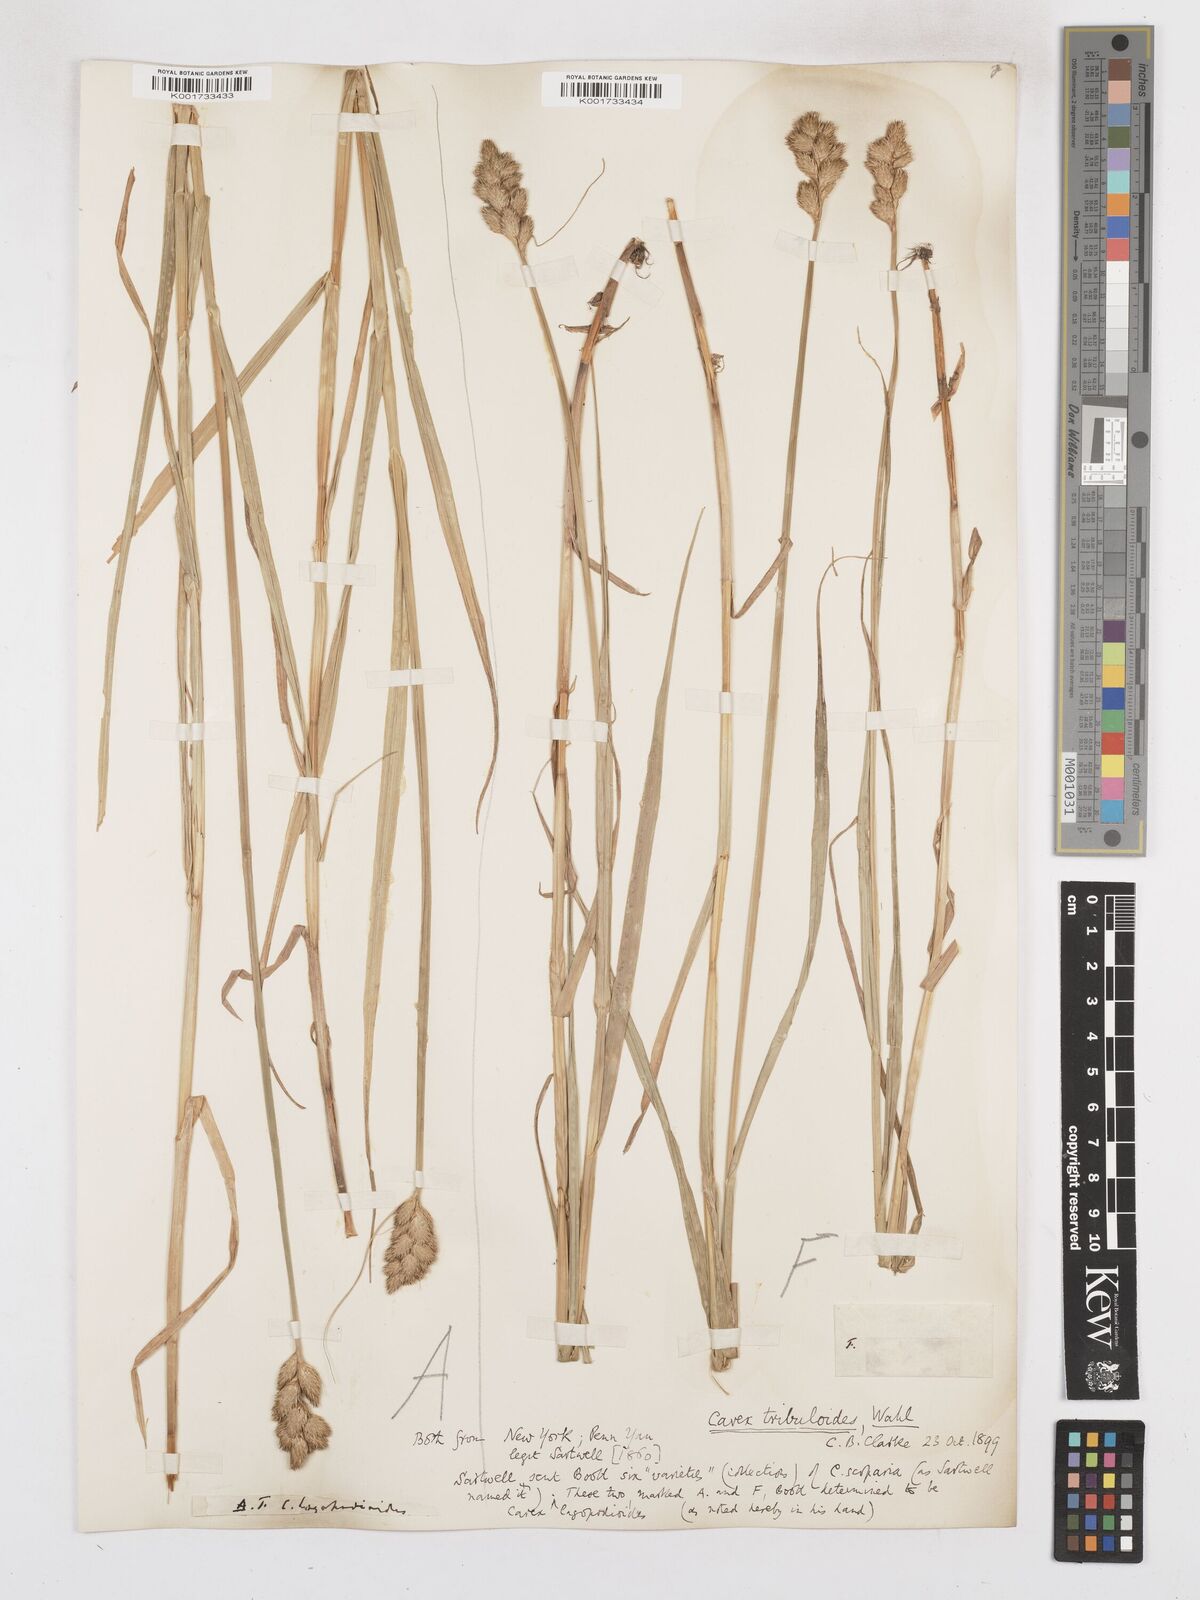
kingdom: Plantae
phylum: Tracheophyta
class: Liliopsida
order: Poales
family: Cyperaceae
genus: Carex
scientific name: Carex tribuloides
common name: Blunt broom sedge
